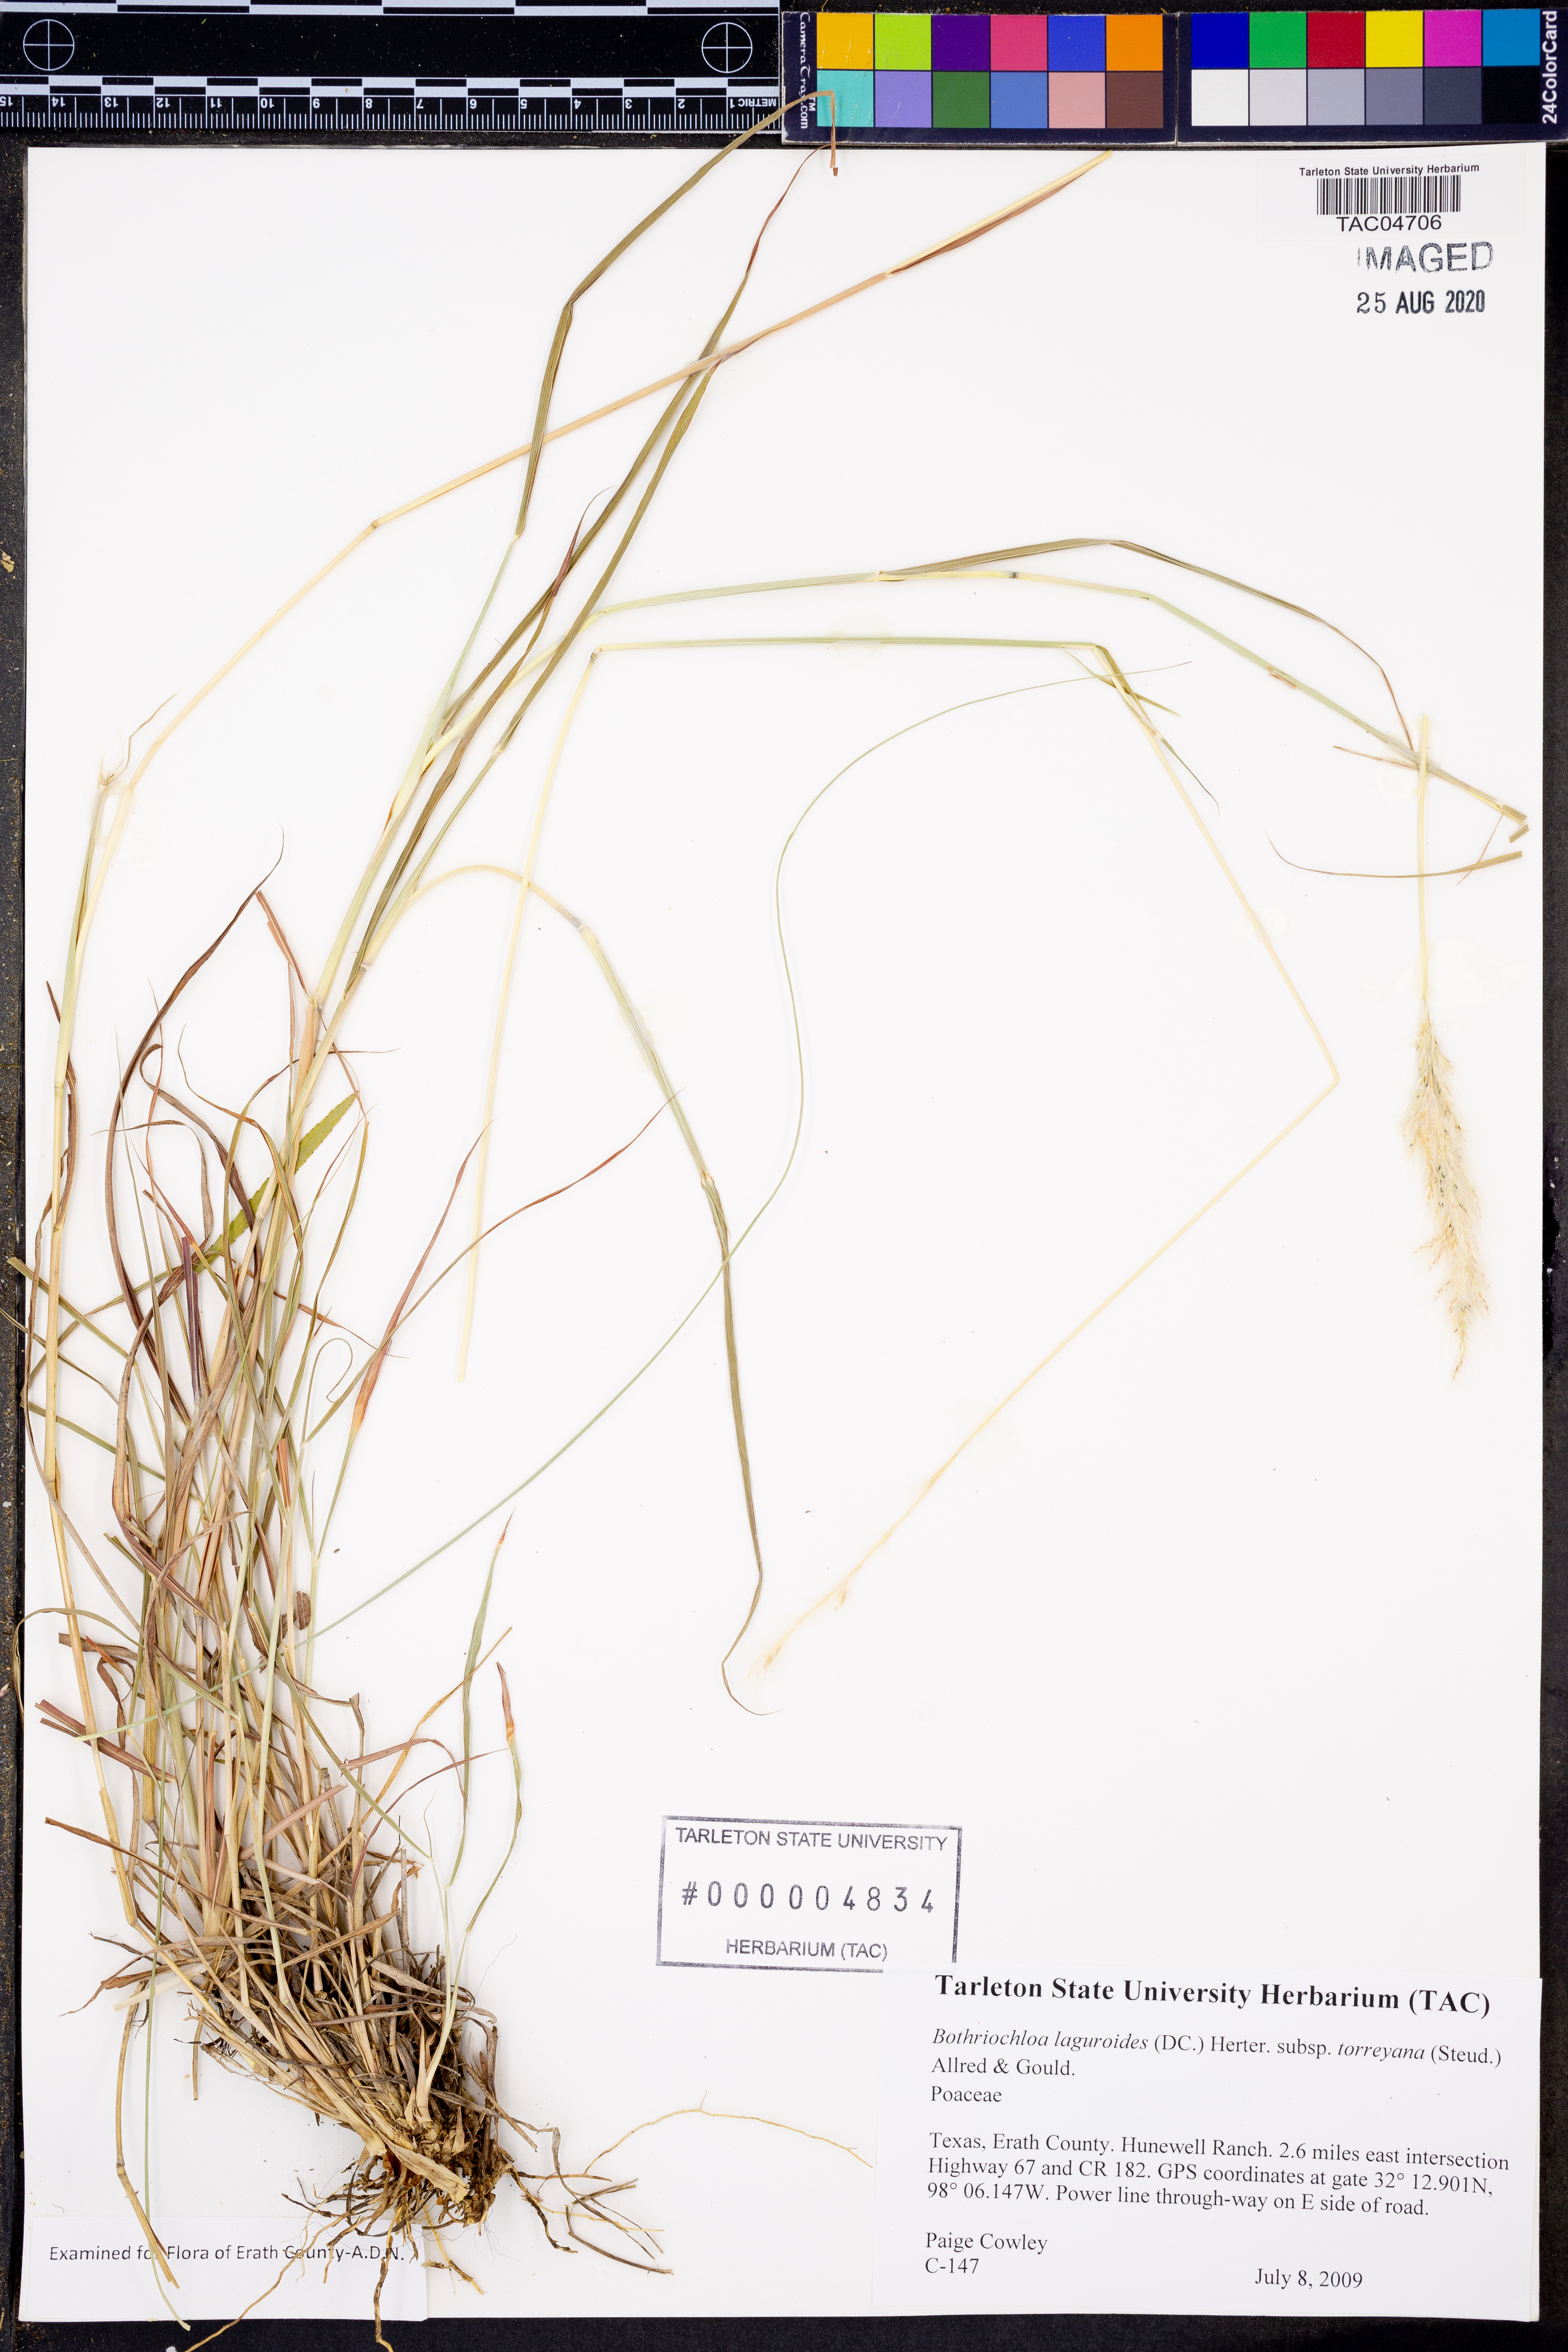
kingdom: Plantae
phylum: Tracheophyta
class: Liliopsida
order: Poales
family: Poaceae
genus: Bothriochloa
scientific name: Bothriochloa torreyana
